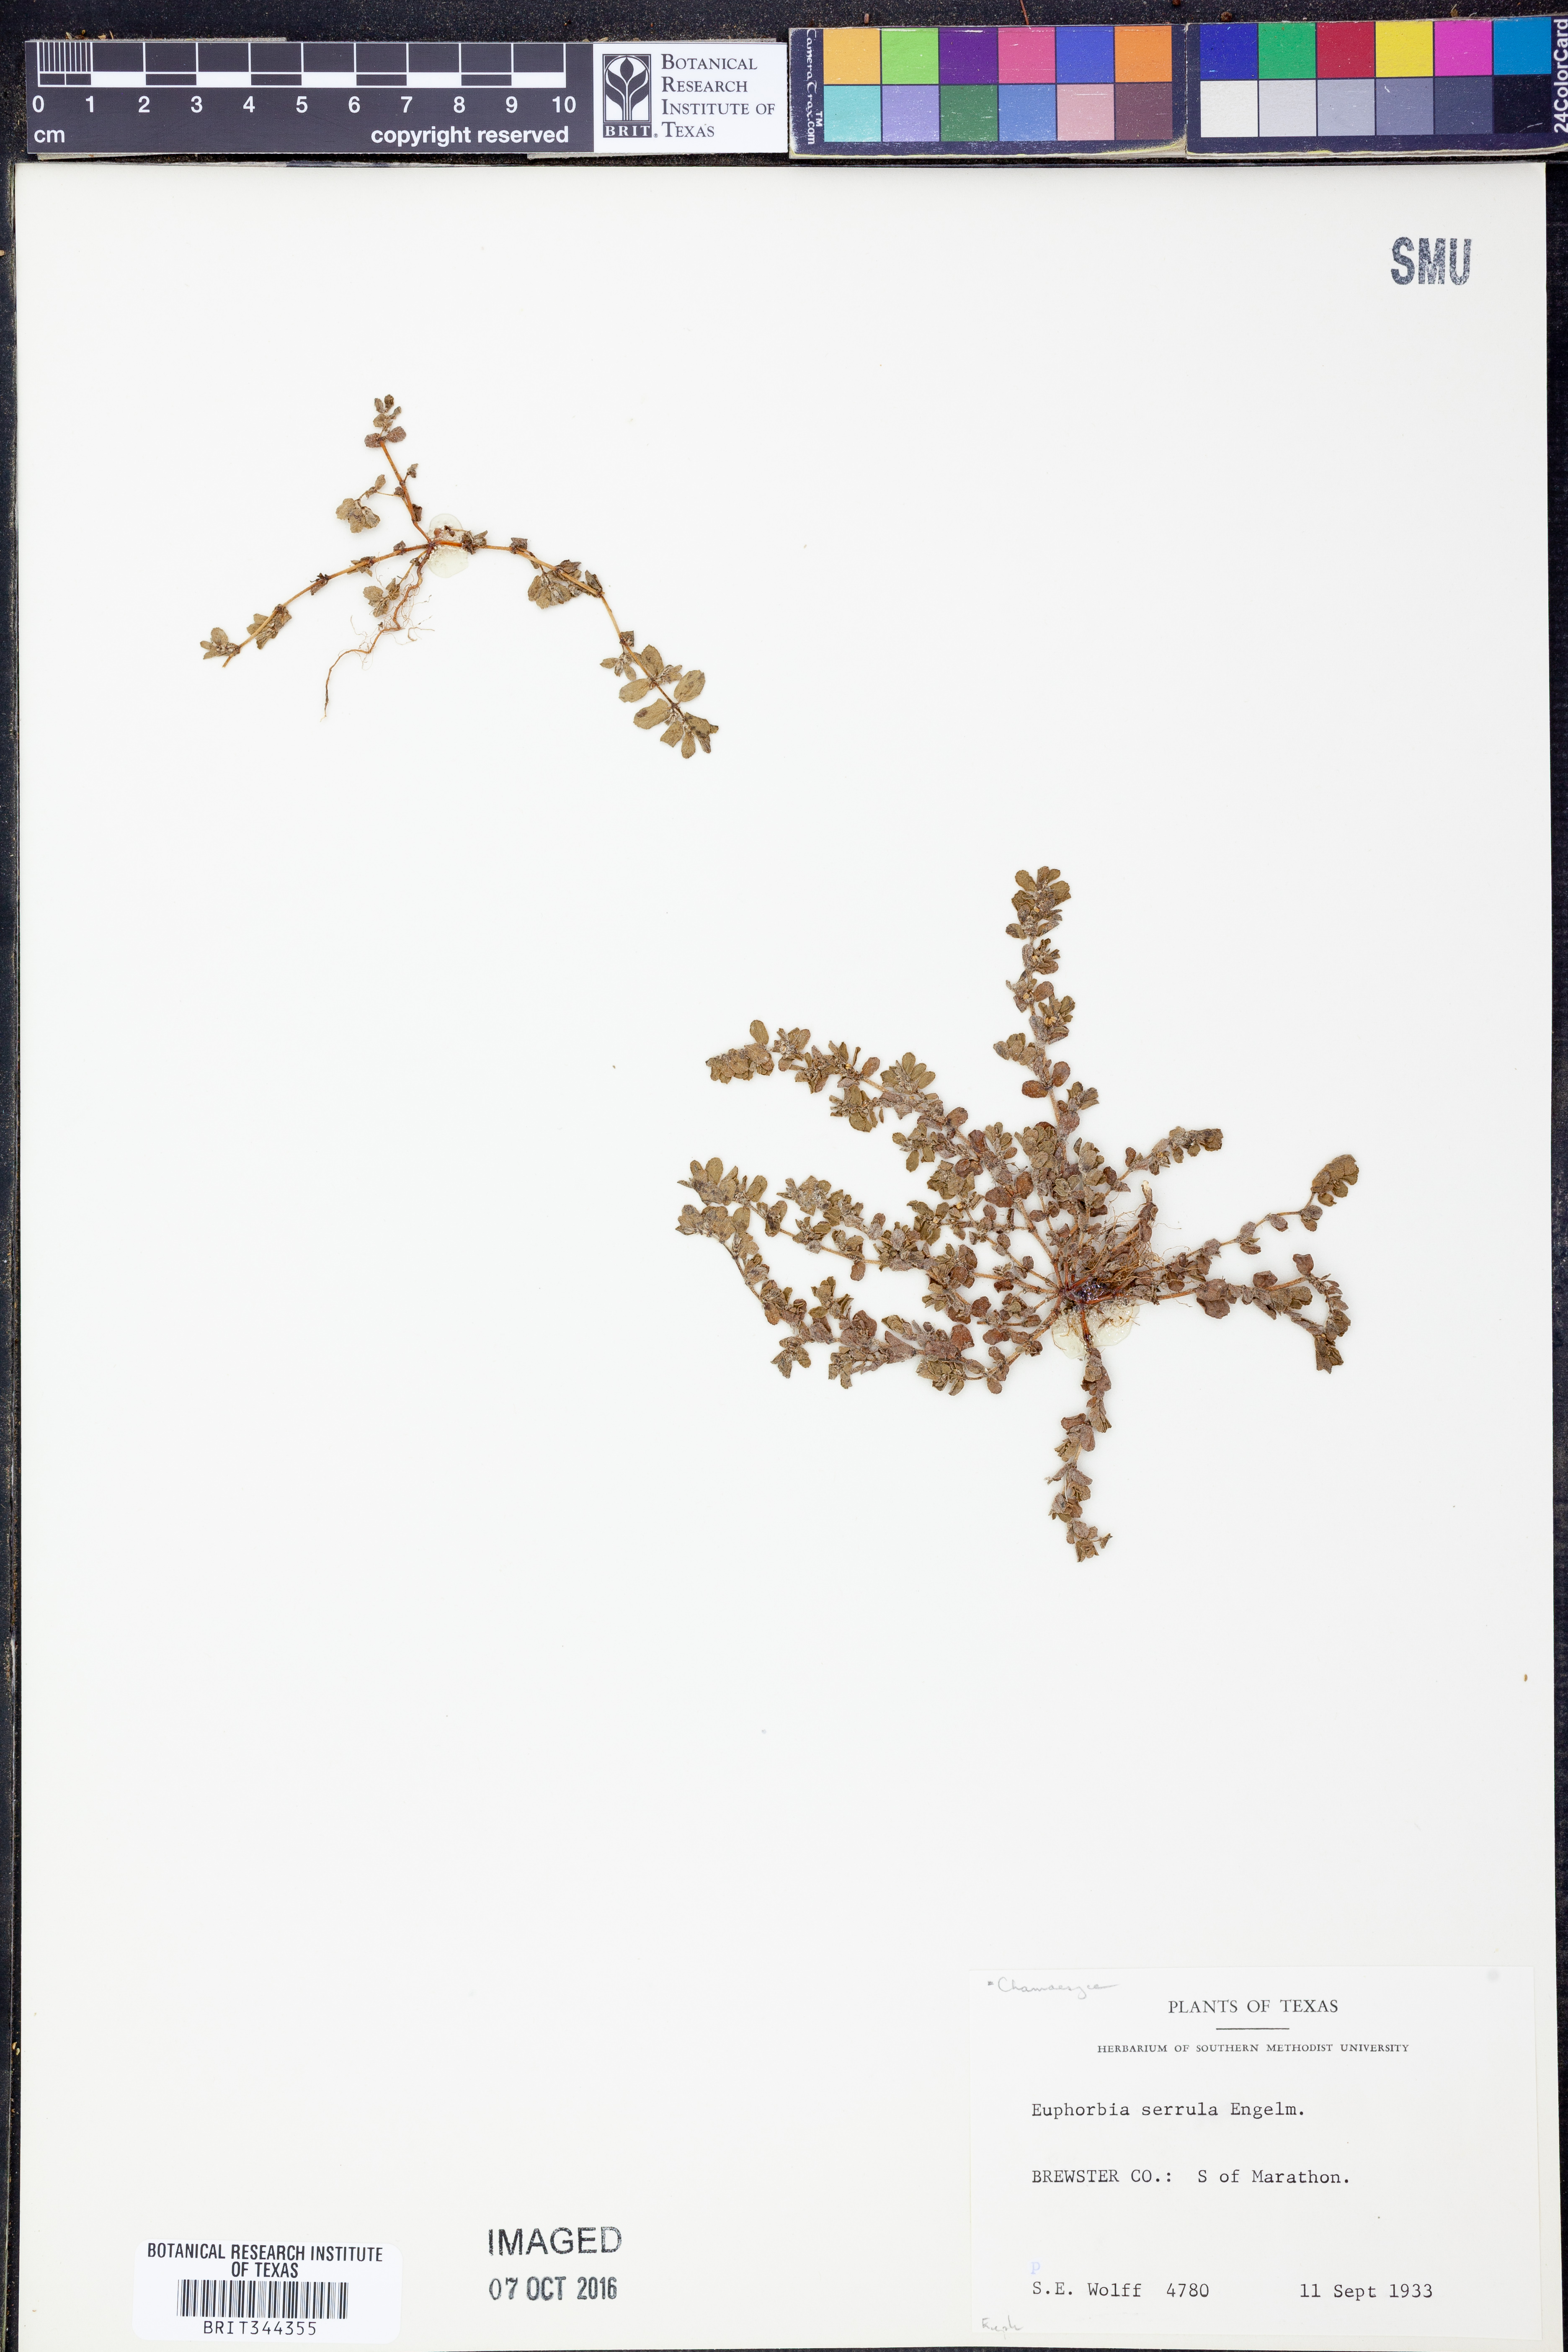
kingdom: Plantae
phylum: Tracheophyta
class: Magnoliopsida
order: Malpighiales
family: Euphorbiaceae
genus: Euphorbia
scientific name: Euphorbia serrula
